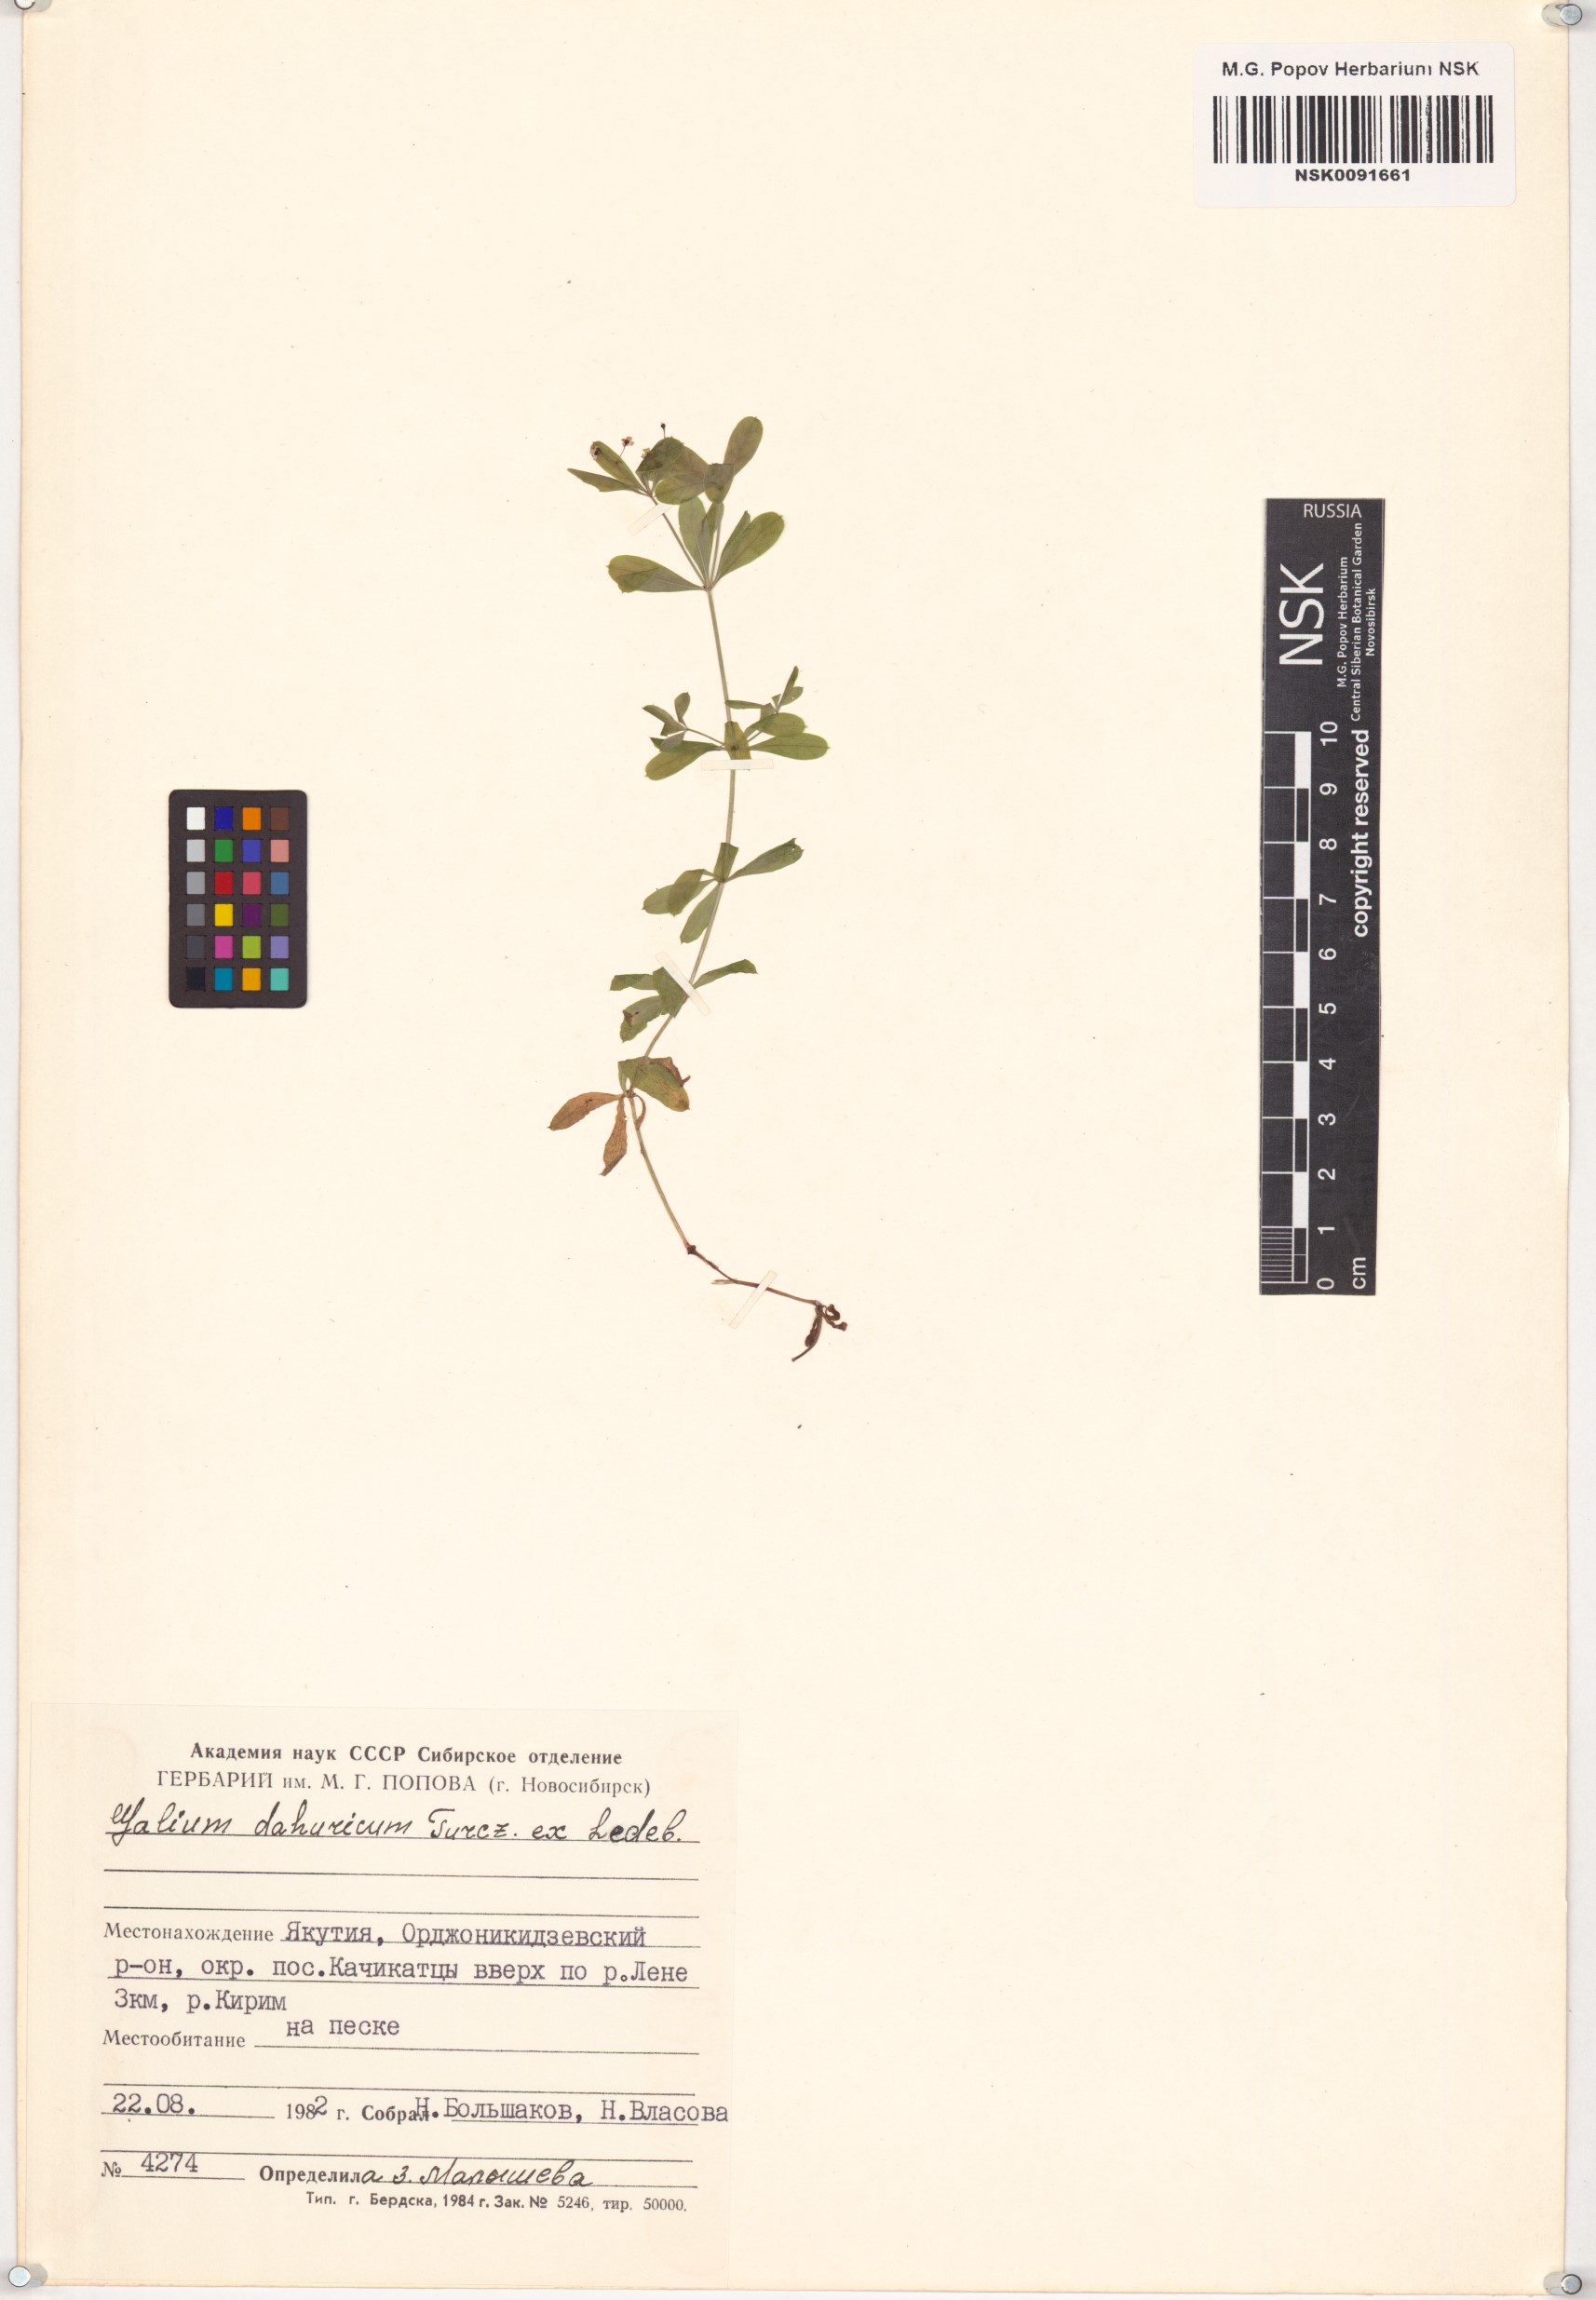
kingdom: Plantae
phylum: Tracheophyta
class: Magnoliopsida
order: Gentianales
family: Rubiaceae
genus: Galium
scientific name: Galium dahuricum
